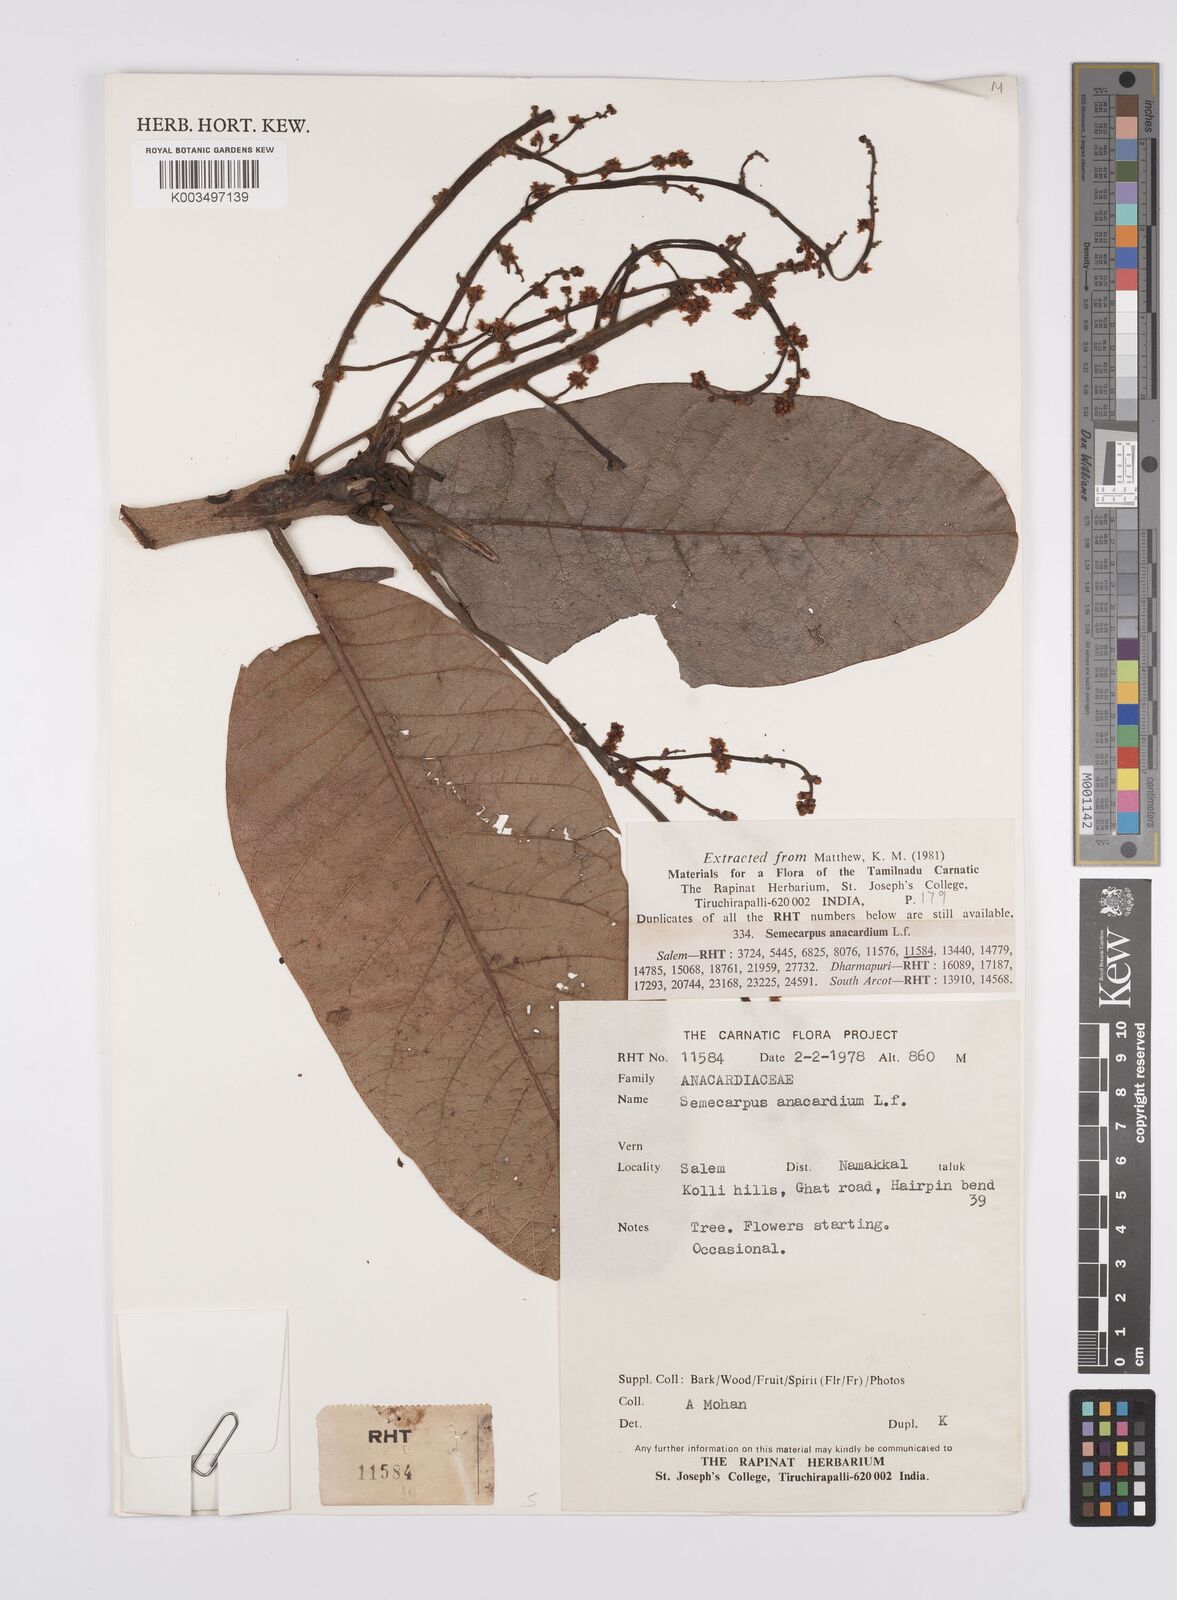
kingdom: Plantae
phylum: Tracheophyta
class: Magnoliopsida
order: Sapindales
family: Anacardiaceae
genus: Semecarpus
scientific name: Semecarpus anacardium
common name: Marking nut-tree
